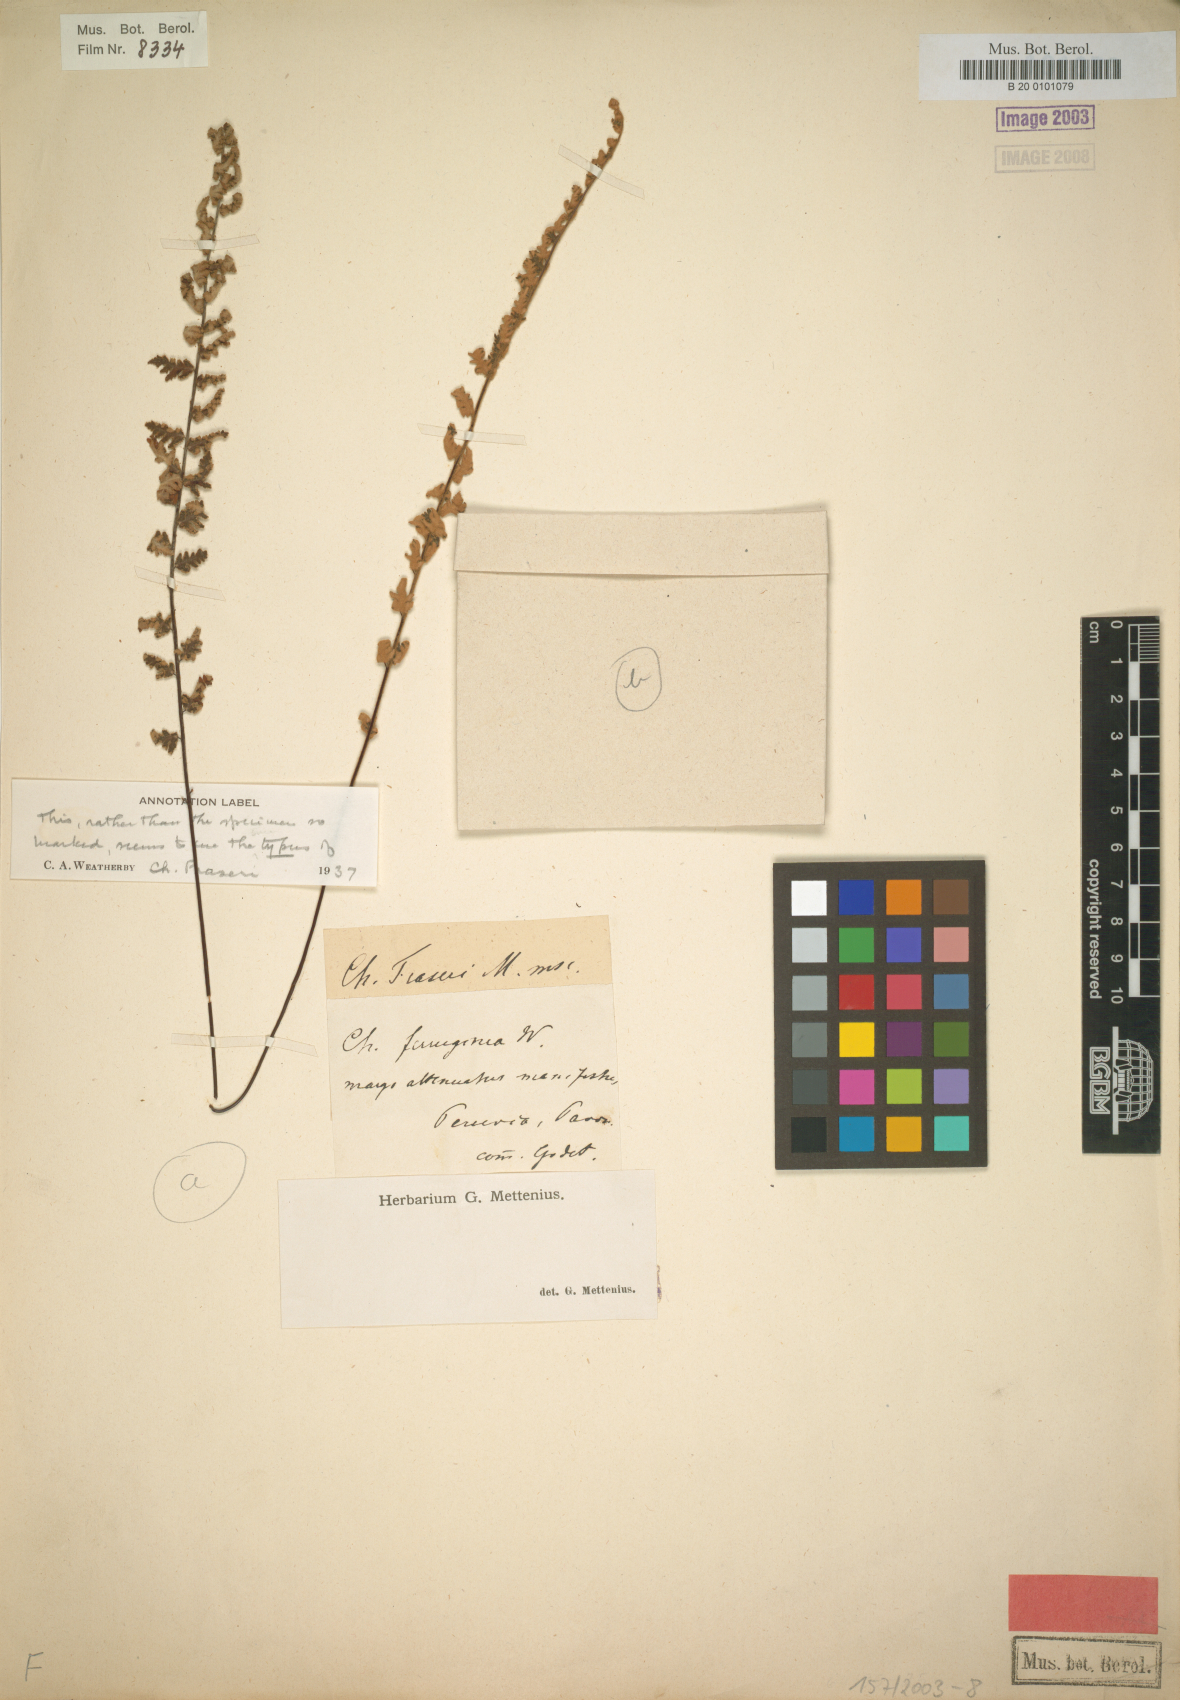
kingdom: Plantae
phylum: Tracheophyta
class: Polypodiopsida
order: Polypodiales
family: Pteridaceae
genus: Cheilanthes
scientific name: Cheilanthes fraseri
